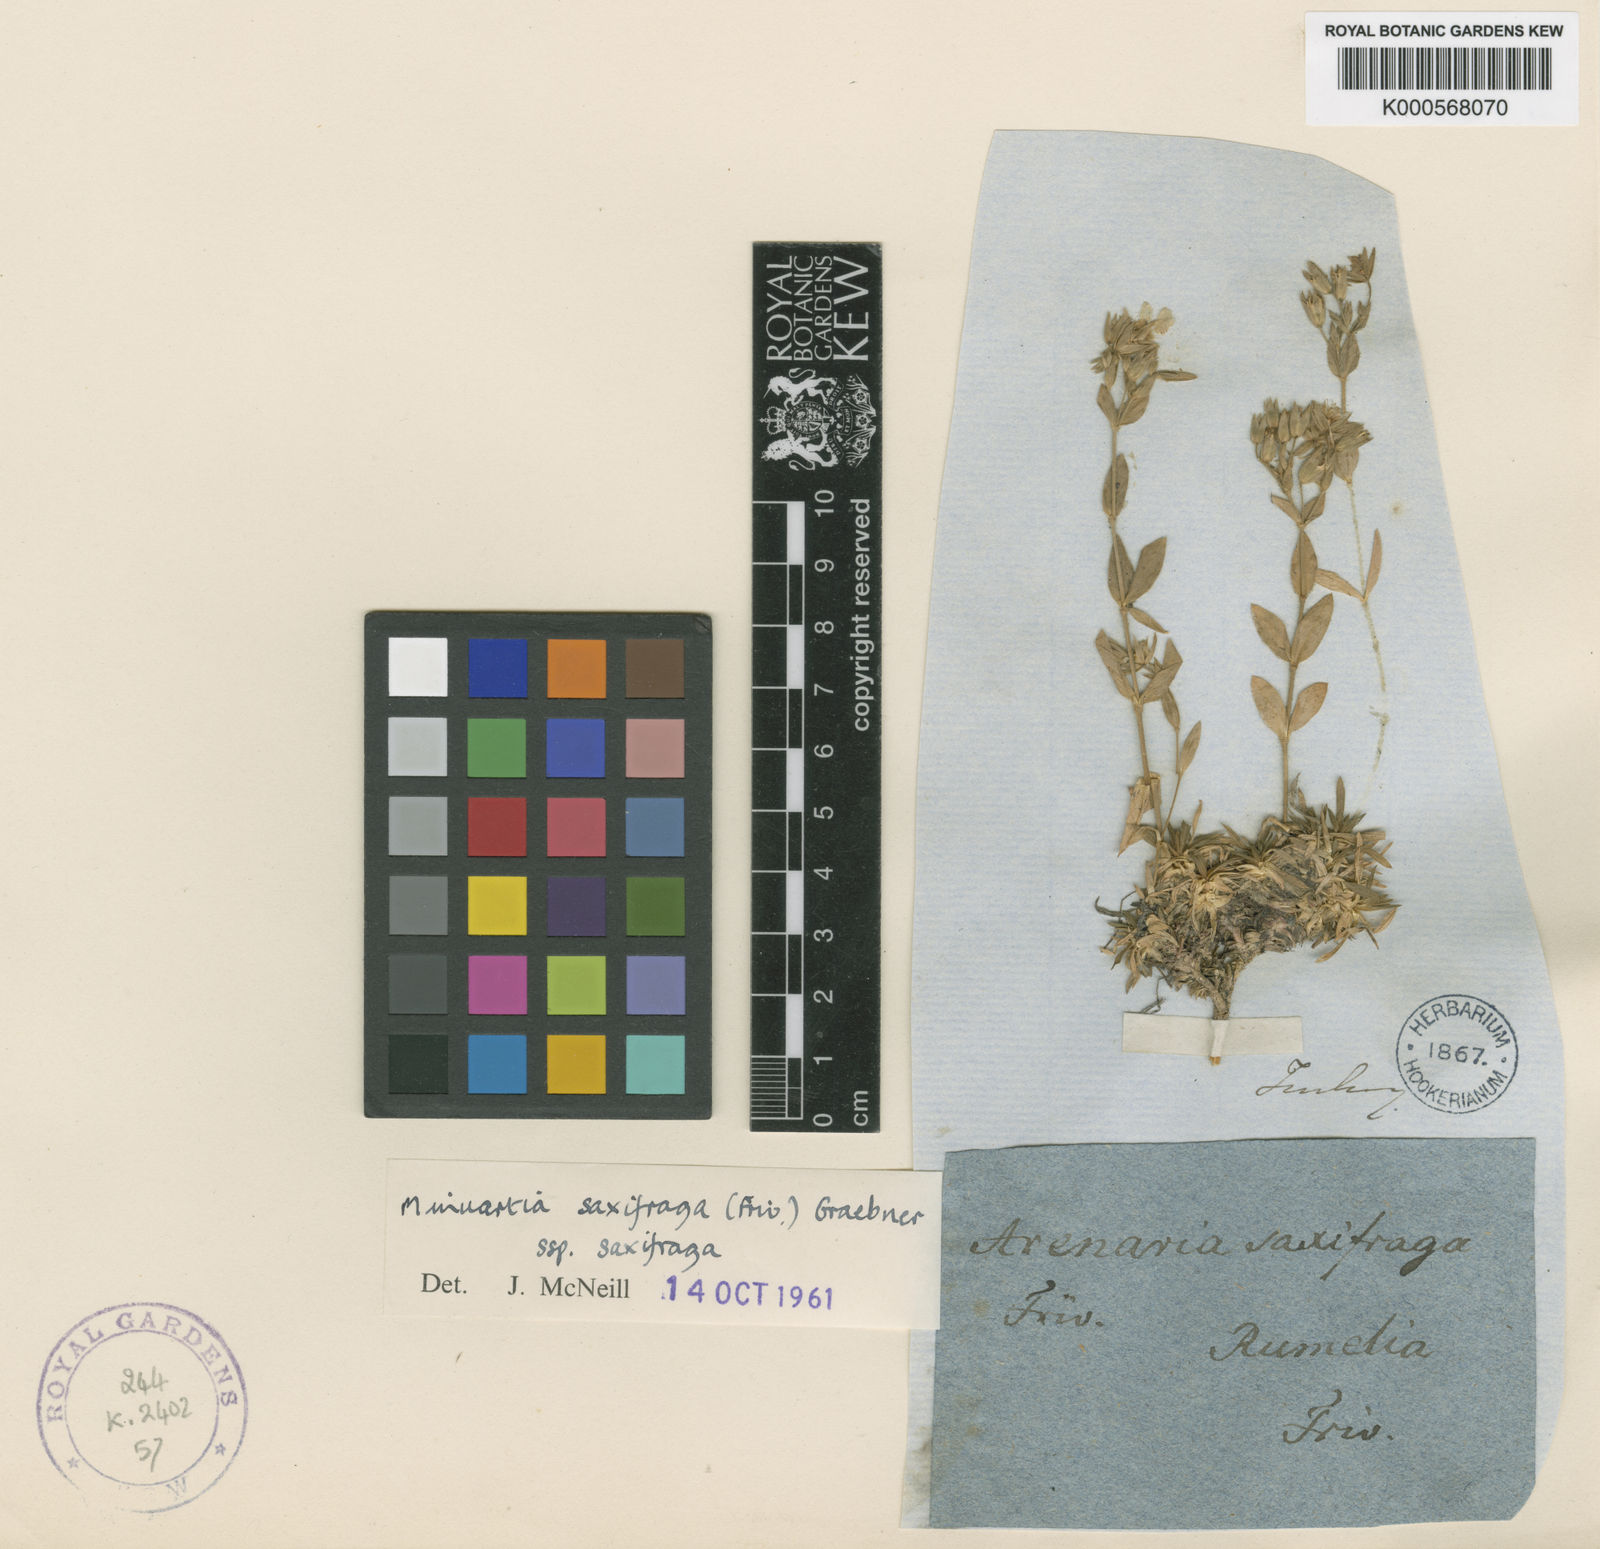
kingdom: Plantae
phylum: Tracheophyta
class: Magnoliopsida
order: Caryophyllales
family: Caryophyllaceae
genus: Mcneillia
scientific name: Mcneillia saxifraga
